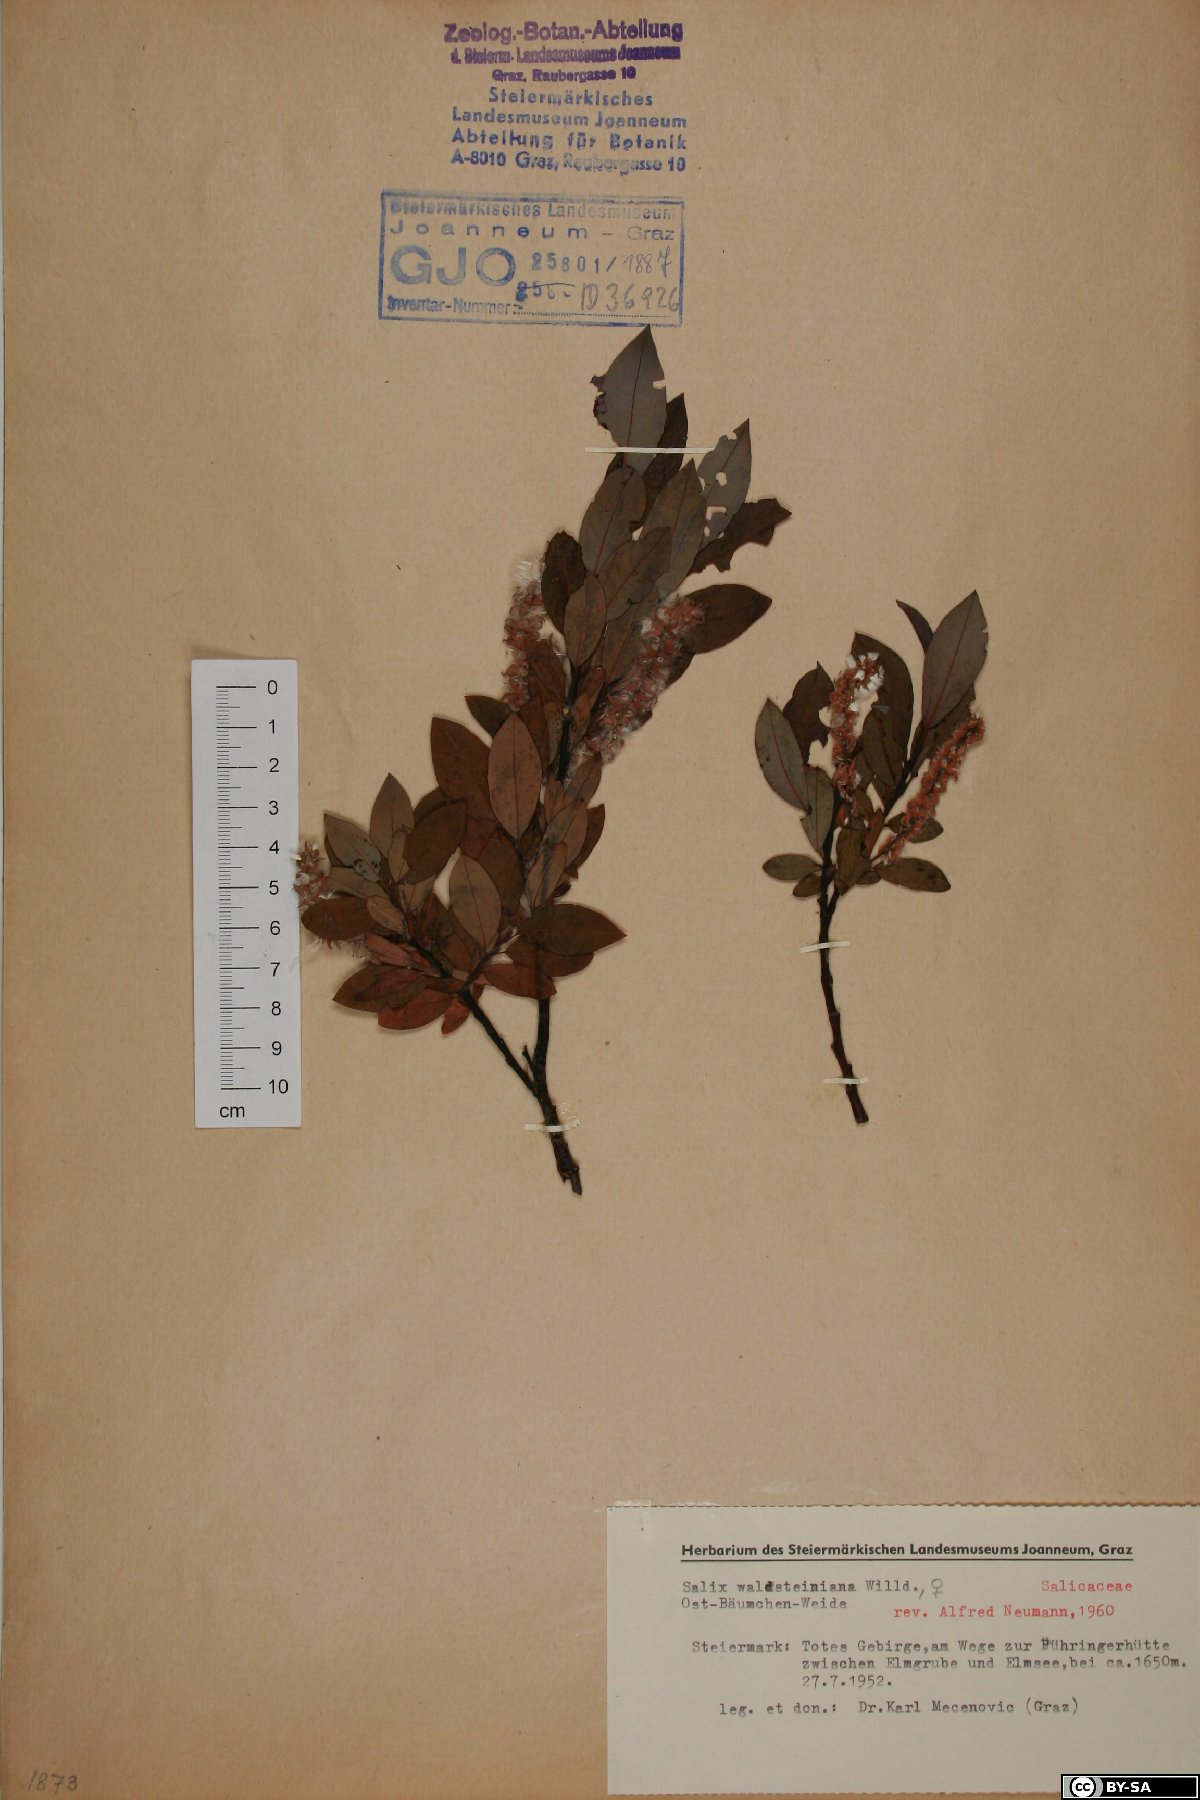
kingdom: Plantae
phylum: Tracheophyta
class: Magnoliopsida
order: Malpighiales
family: Salicaceae
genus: Salix
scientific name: Salix waldsteiniana
